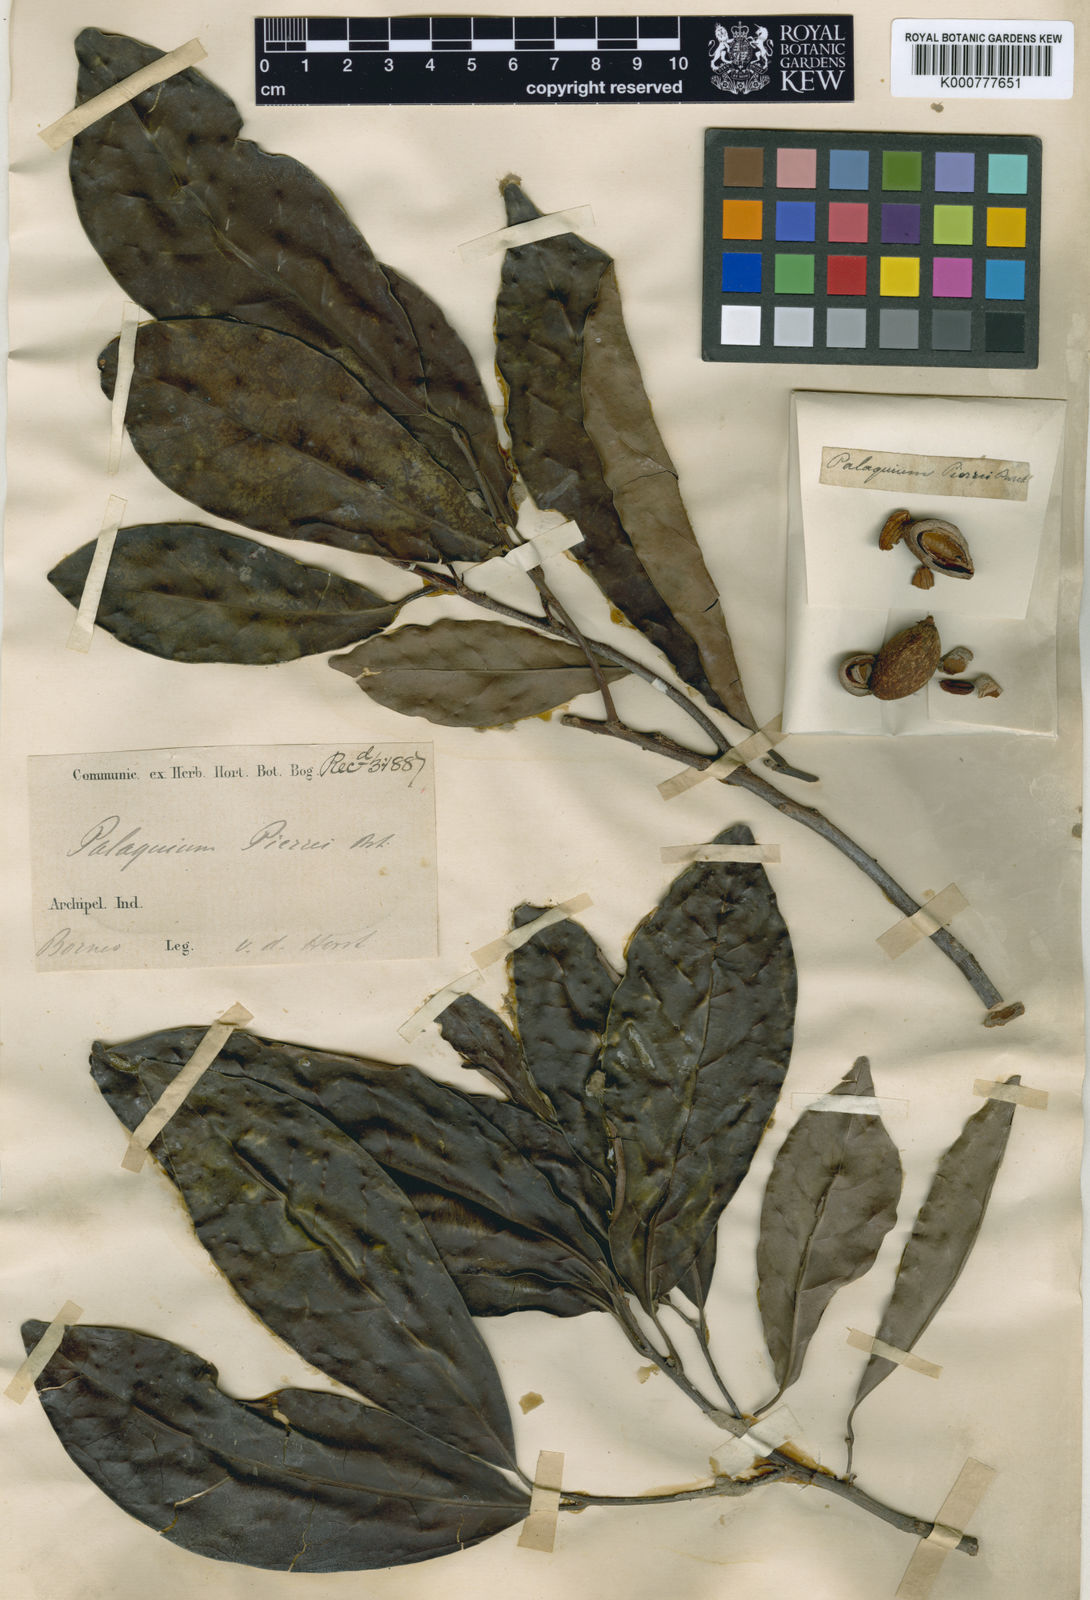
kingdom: Plantae
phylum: Tracheophyta
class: Magnoliopsida
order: Ericales
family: Sapotaceae
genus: Palaquium
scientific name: Palaquium pierrei
